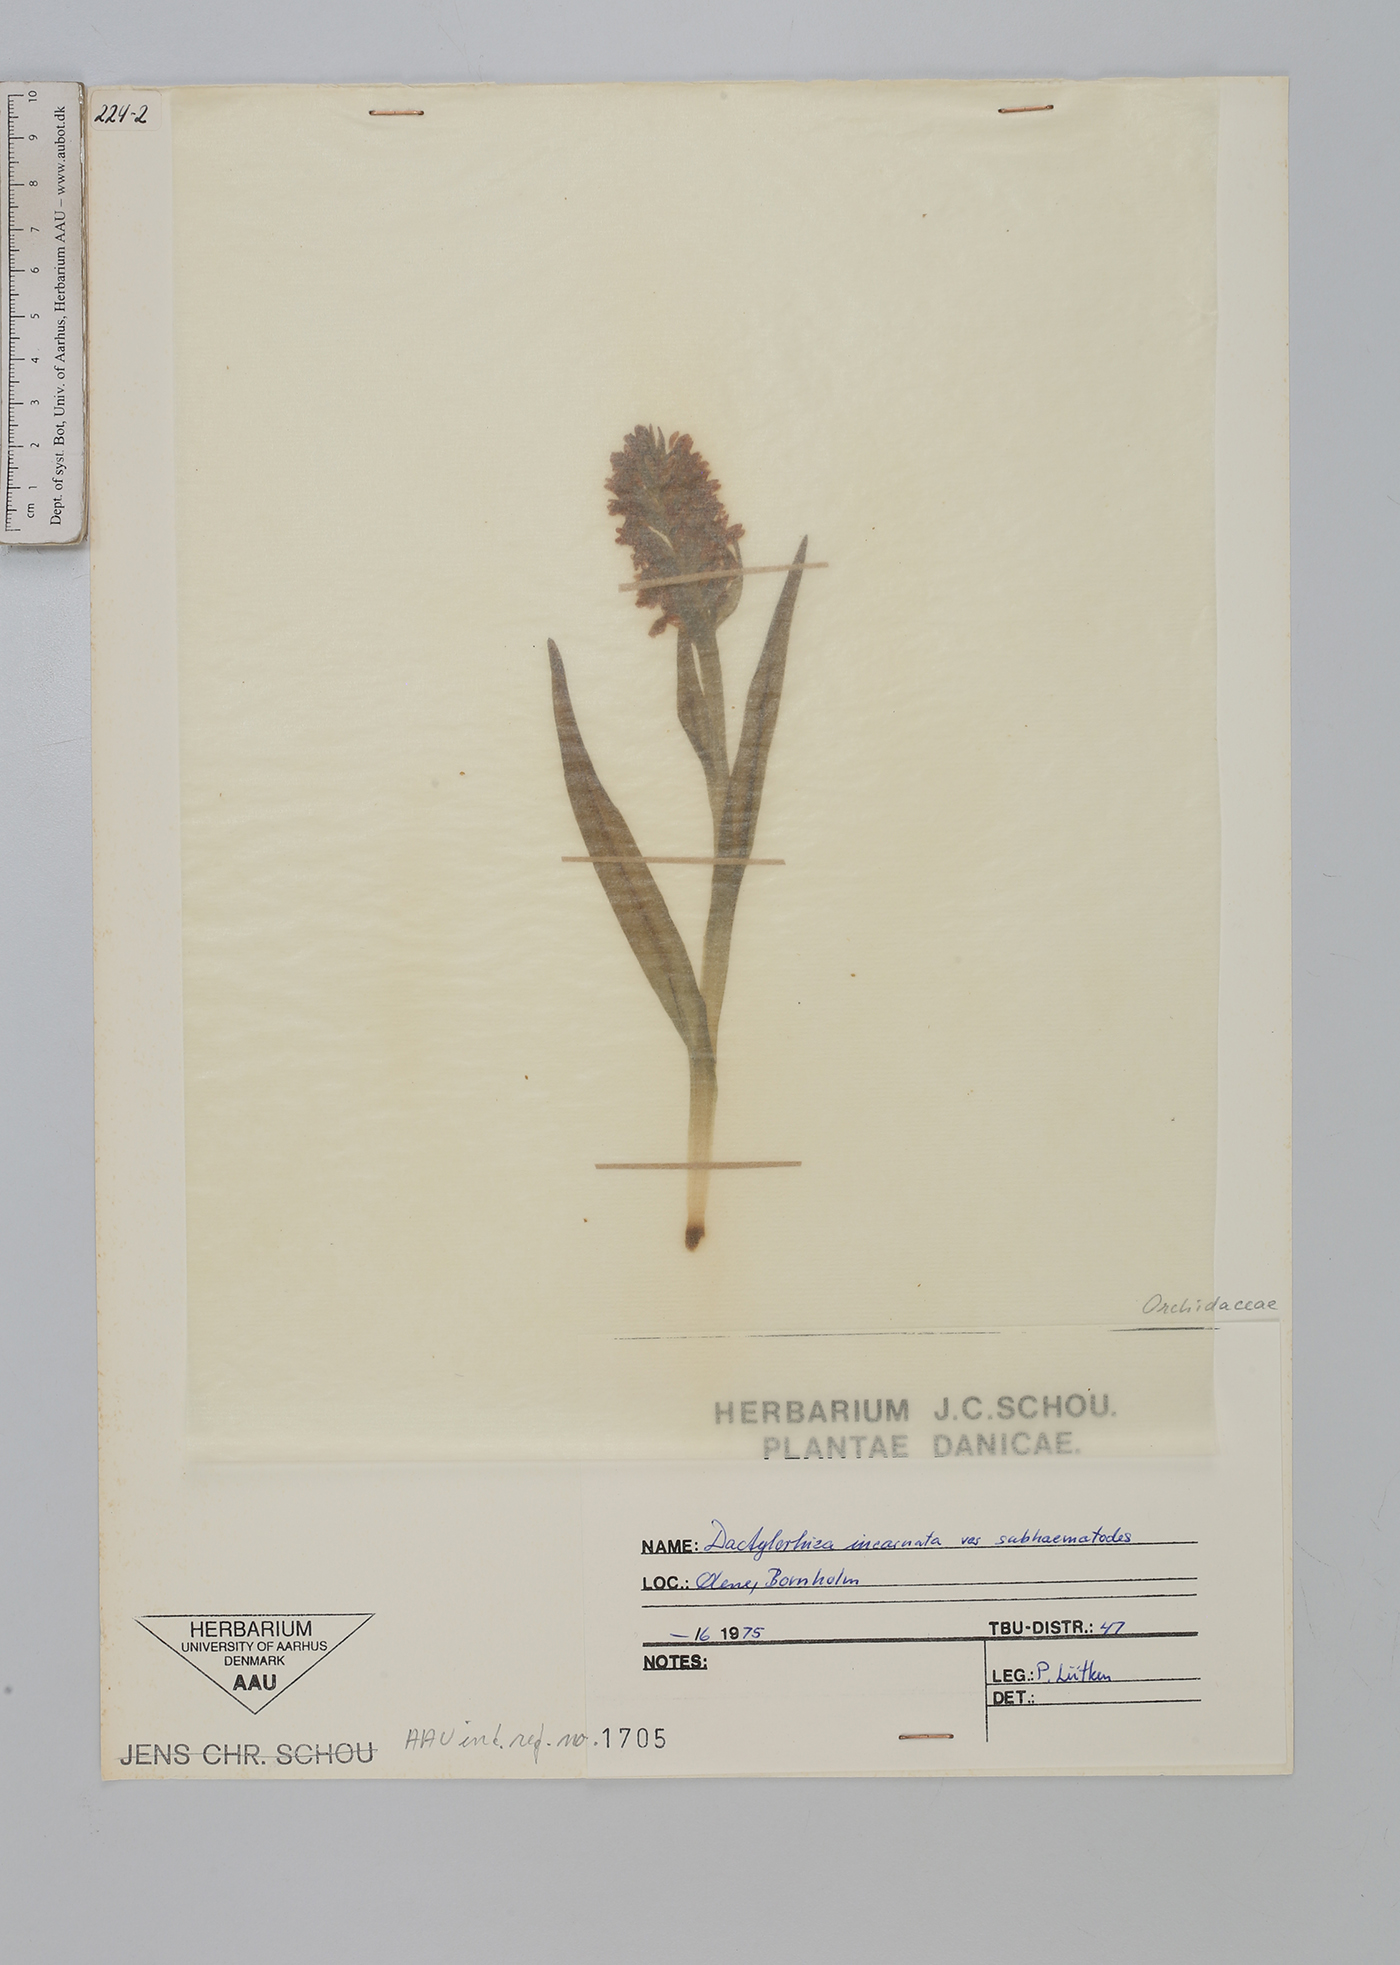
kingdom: Plantae
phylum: Tracheophyta
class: Liliopsida
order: Asparagales
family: Orchidaceae
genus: Dactylorhiza
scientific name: Dactylorhiza incarnata
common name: Early marsh-orchid
